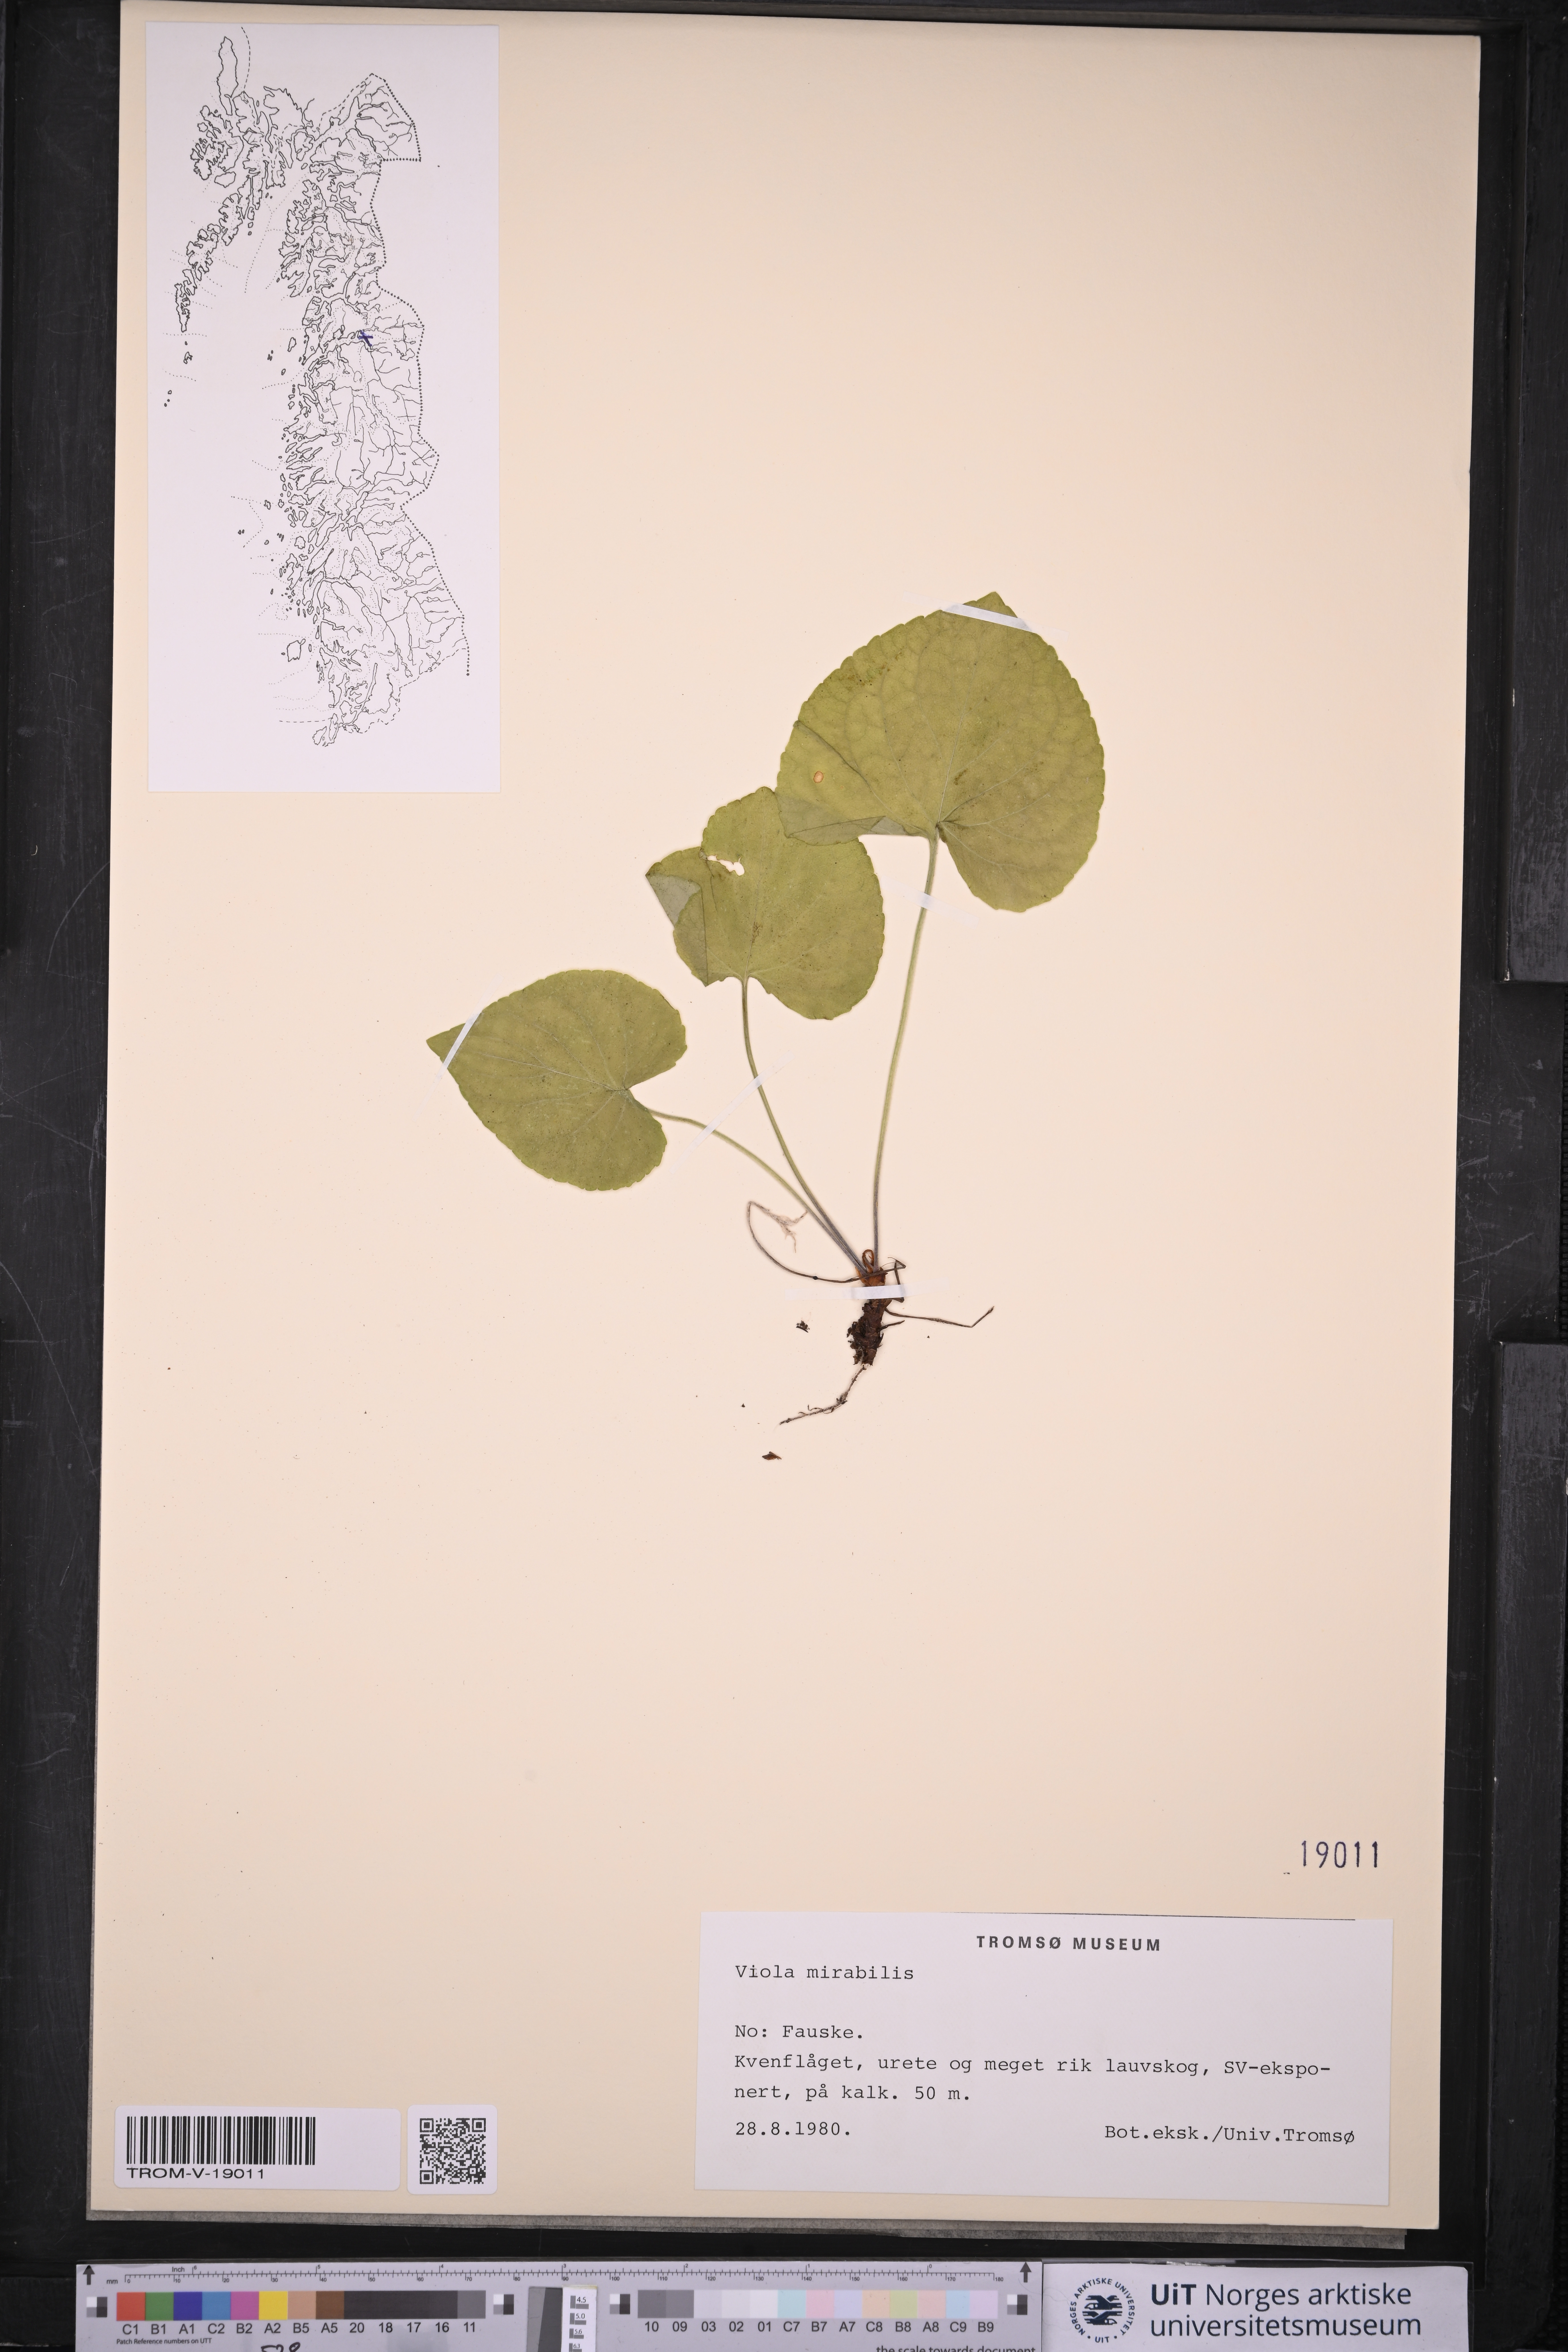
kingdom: Plantae
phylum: Tracheophyta
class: Magnoliopsida
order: Malpighiales
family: Violaceae
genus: Viola
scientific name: Viola mirabilis
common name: Wonder violet
